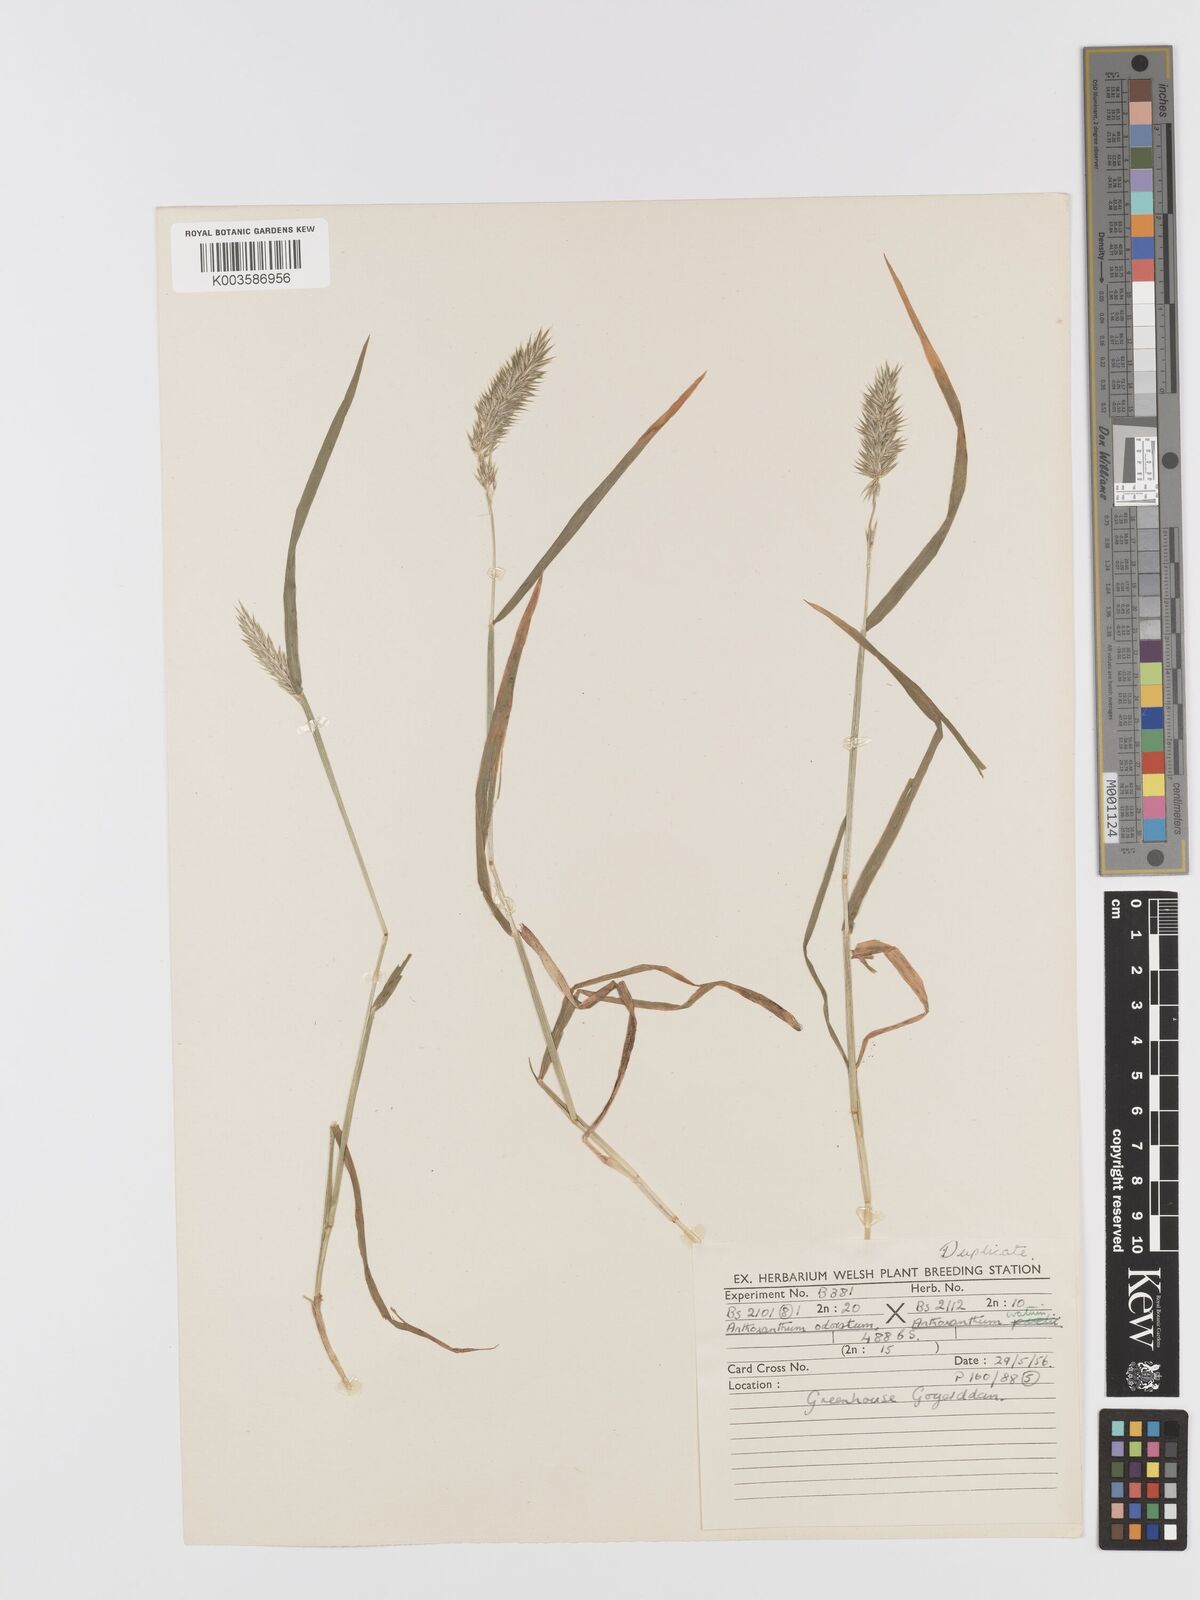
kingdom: Plantae
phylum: Tracheophyta
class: Liliopsida
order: Poales
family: Poaceae
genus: Anthoxanthum
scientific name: Anthoxanthum odoratum
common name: Sweet vernalgrass
